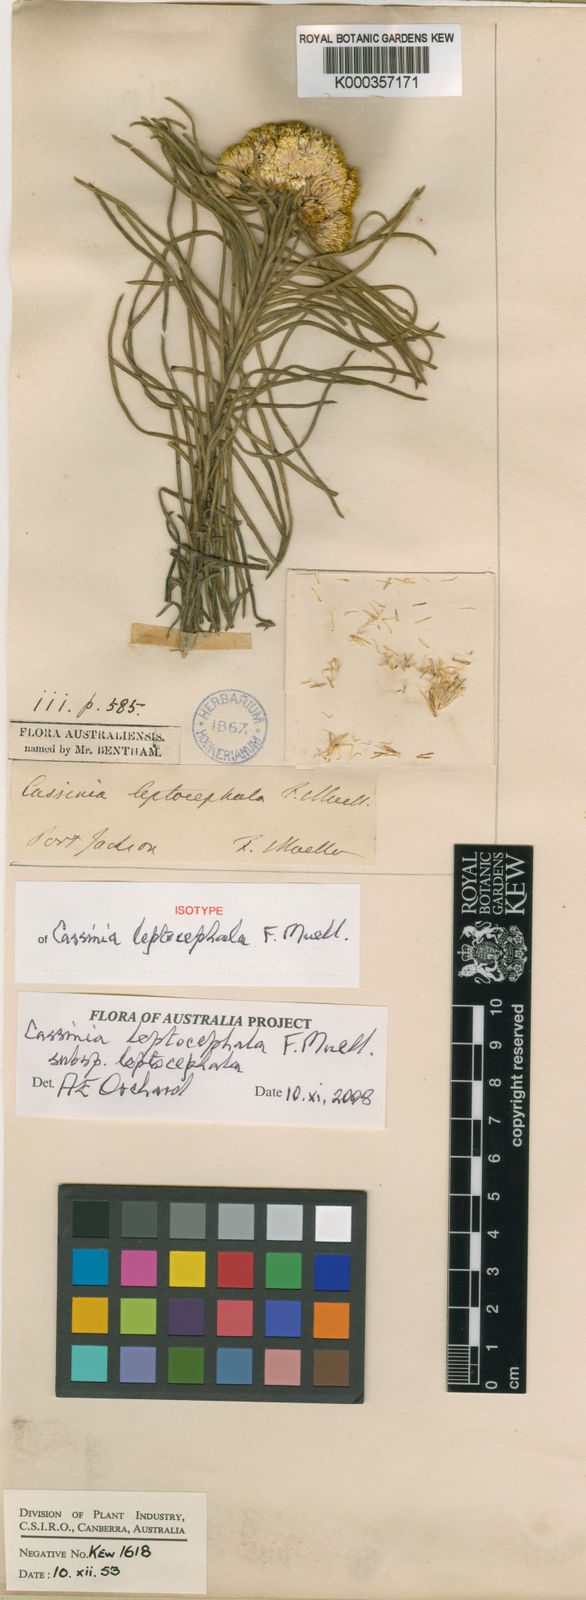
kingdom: Plantae
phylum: Tracheophyta
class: Magnoliopsida
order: Asterales
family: Asteraceae
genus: Cassinia
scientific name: Cassinia leptocephala
